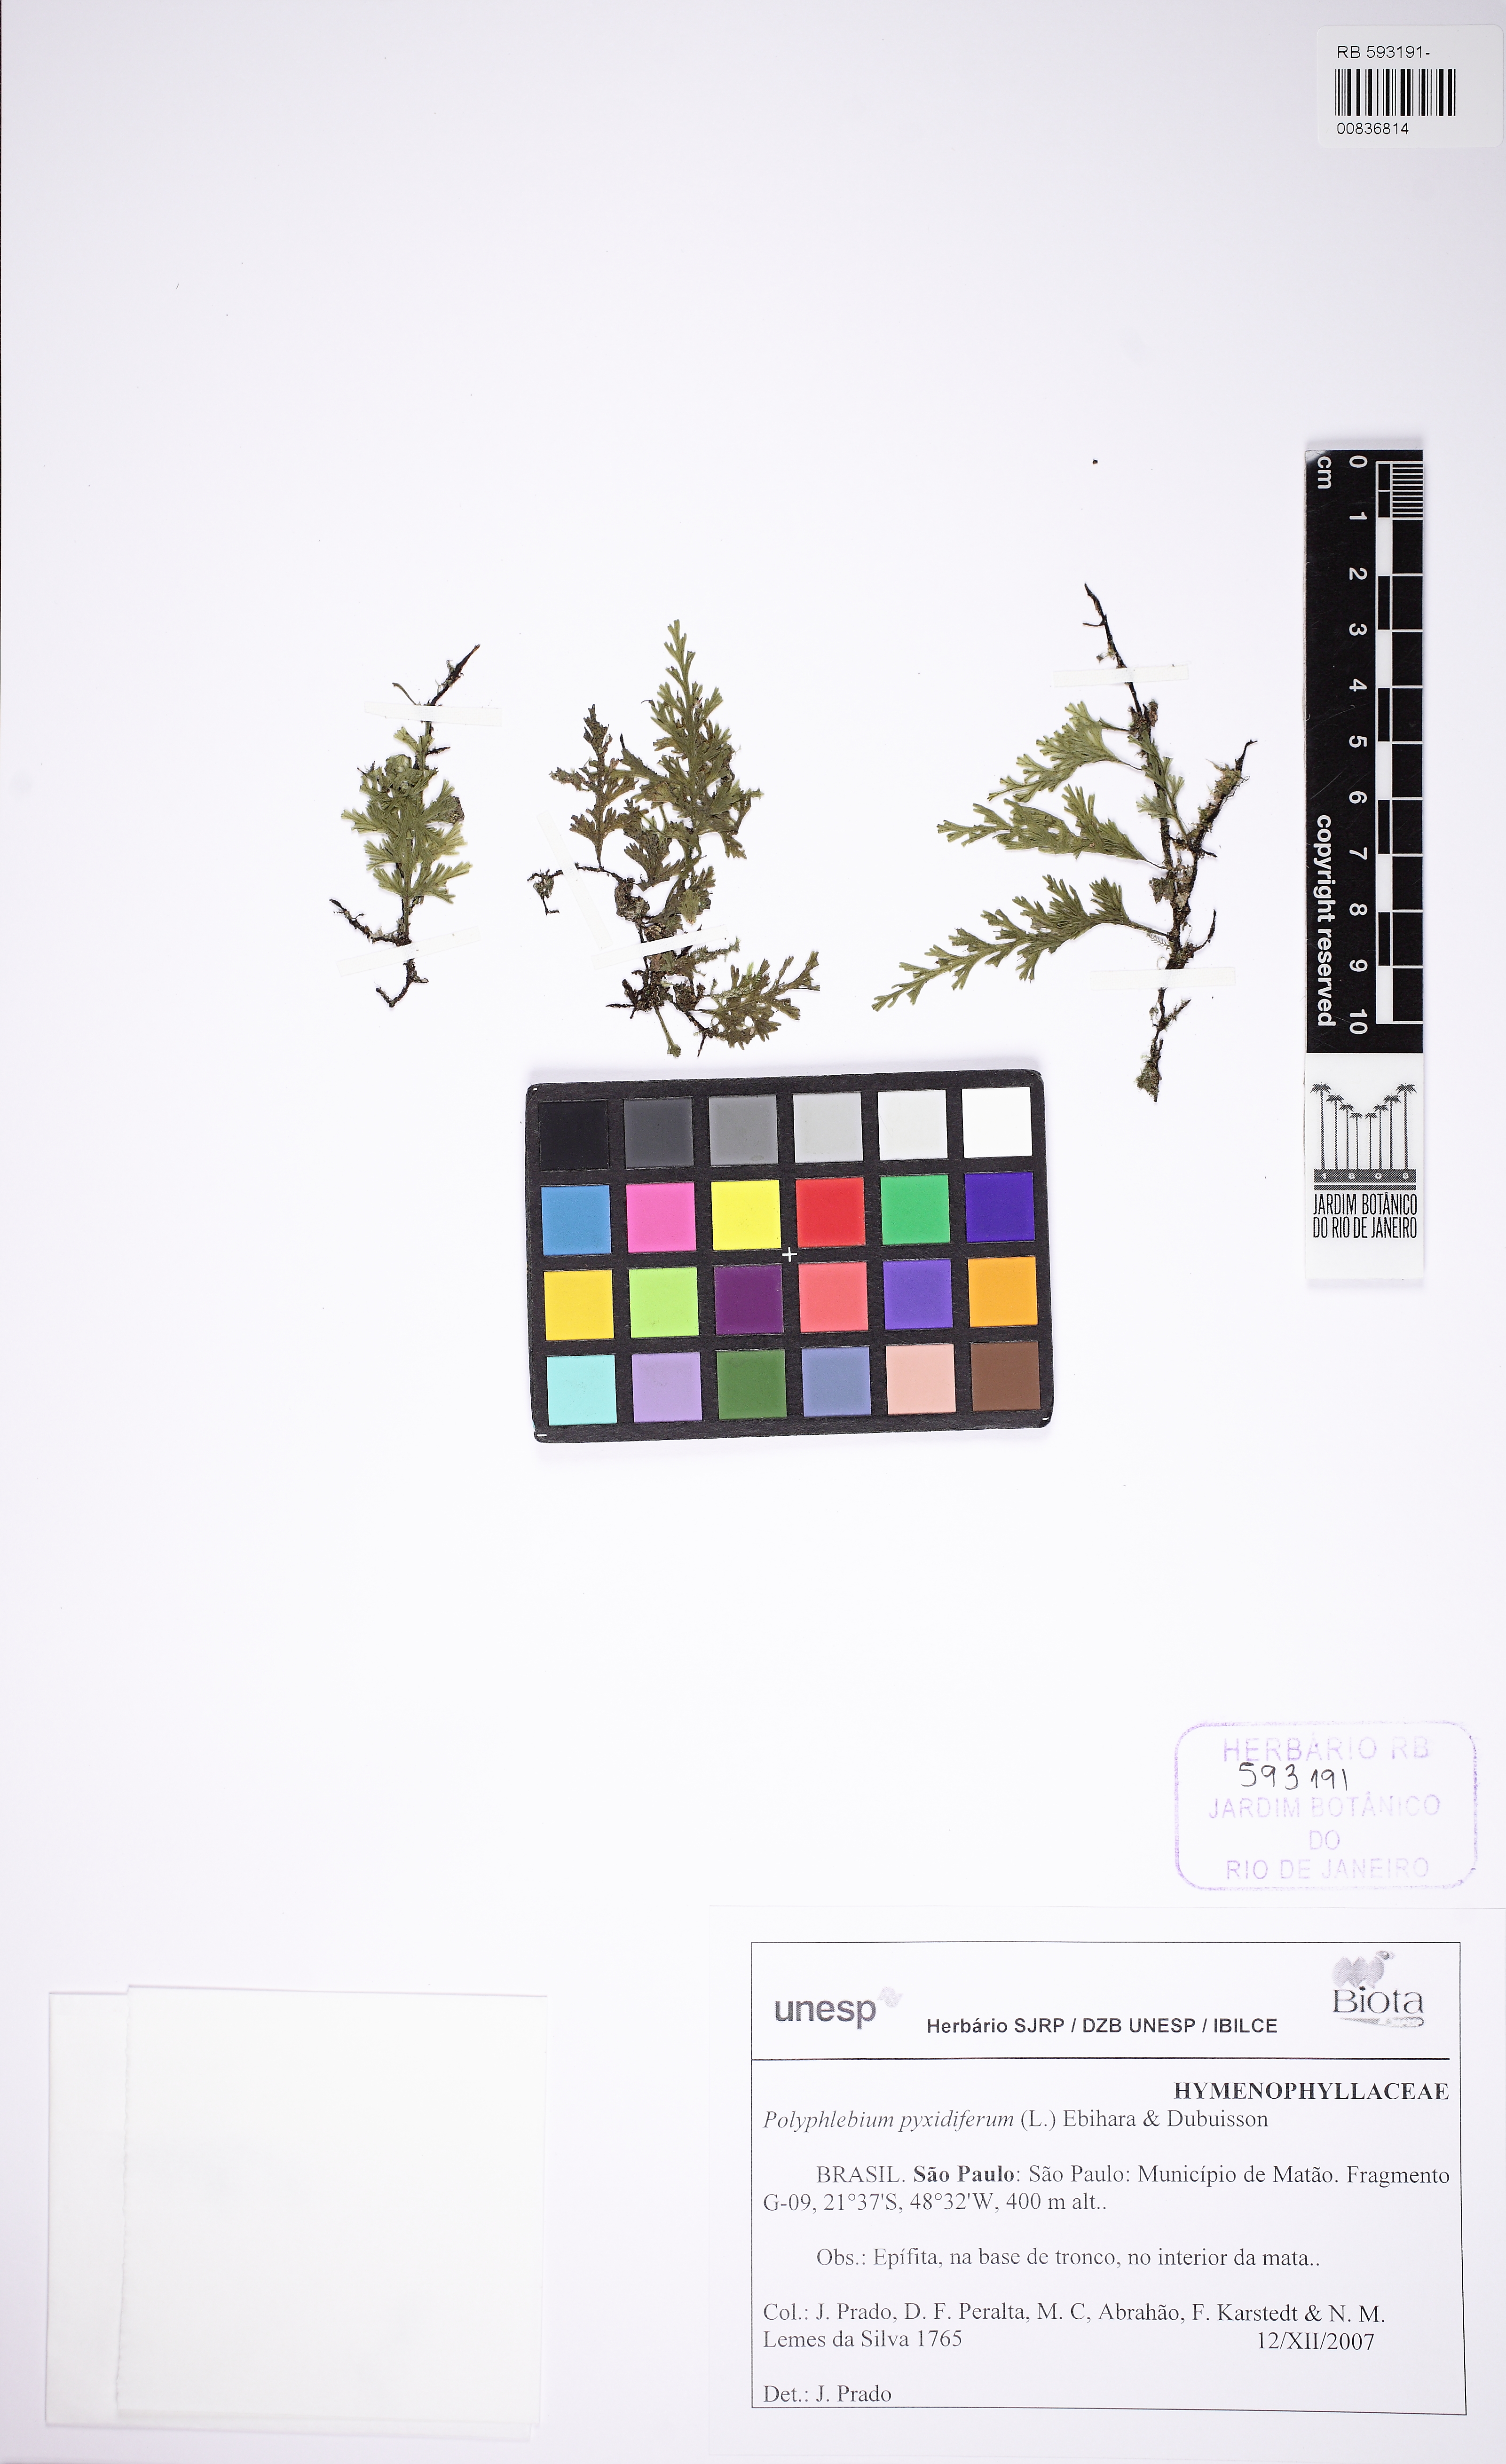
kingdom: Plantae
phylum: Tracheophyta
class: Polypodiopsida
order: Hymenophyllales
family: Hymenophyllaceae
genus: Polyphlebium
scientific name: Polyphlebium pyxidiferum
